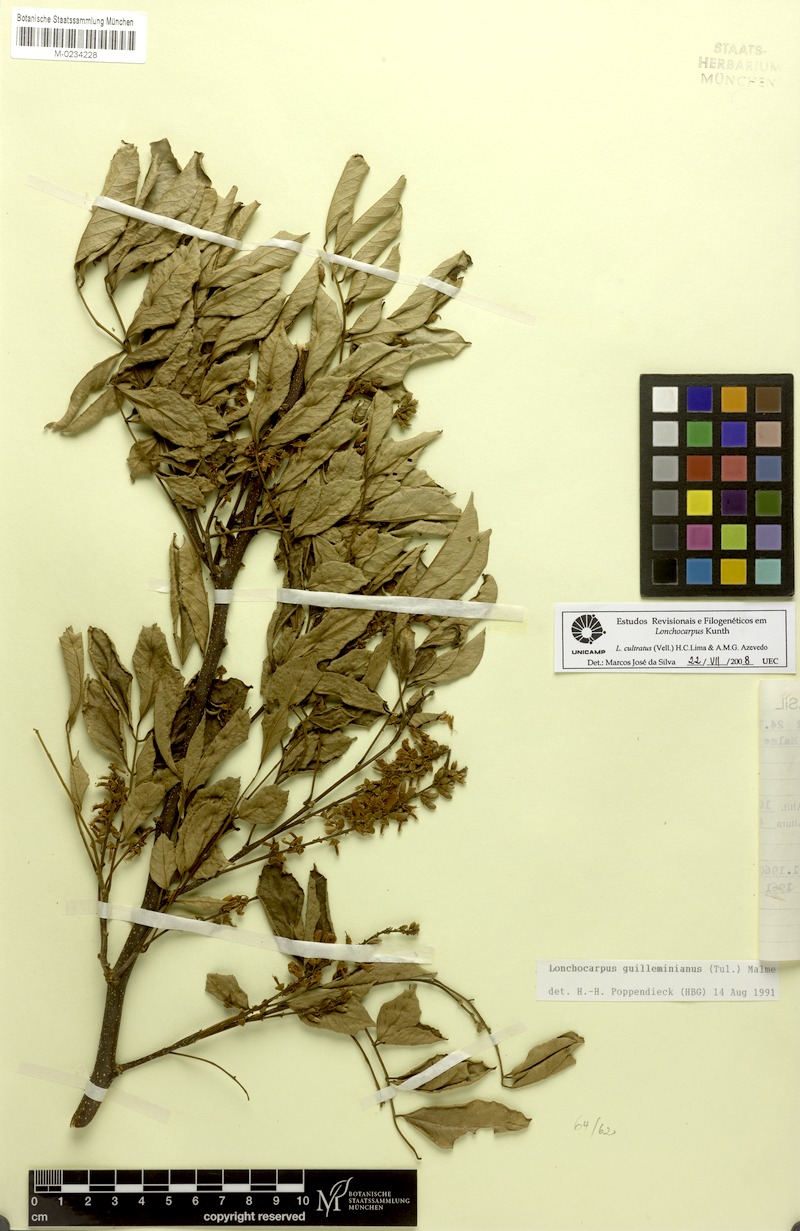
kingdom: Plantae
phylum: Tracheophyta
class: Magnoliopsida
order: Fabales
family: Fabaceae
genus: Lonchocarpus
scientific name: Lonchocarpus cultratus
